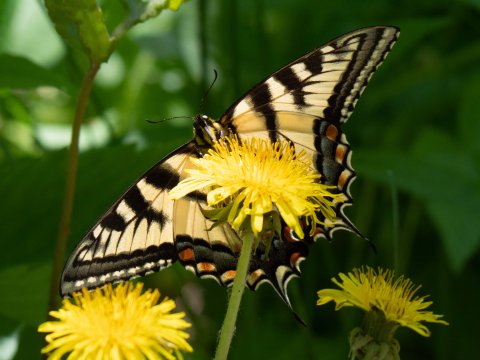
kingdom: Animalia
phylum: Arthropoda
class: Insecta
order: Lepidoptera
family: Papilionidae
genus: Pterourus
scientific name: Pterourus canadensis
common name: Canadian Tiger Swallowtail
